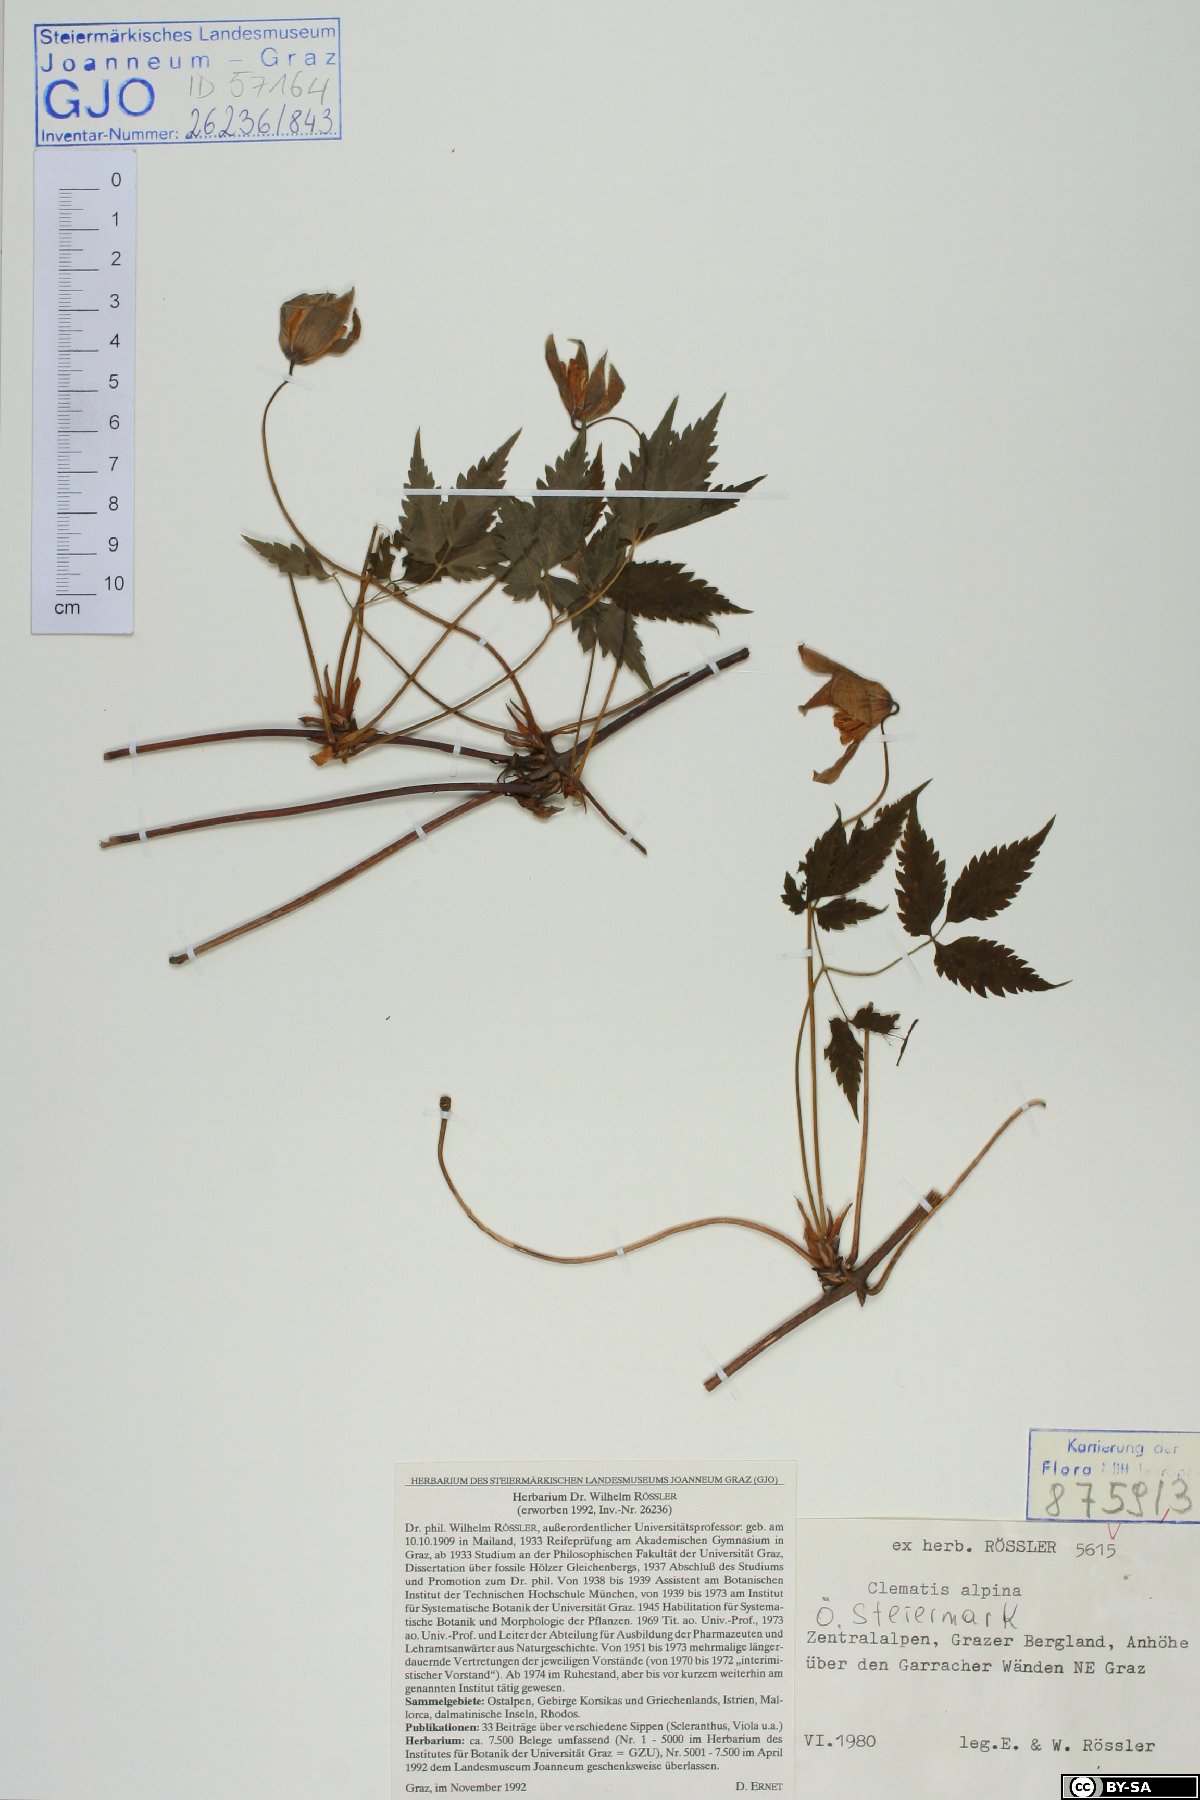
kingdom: Plantae
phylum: Tracheophyta
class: Magnoliopsida
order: Ranunculales
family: Ranunculaceae
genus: Clematis
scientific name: Clematis alpina
